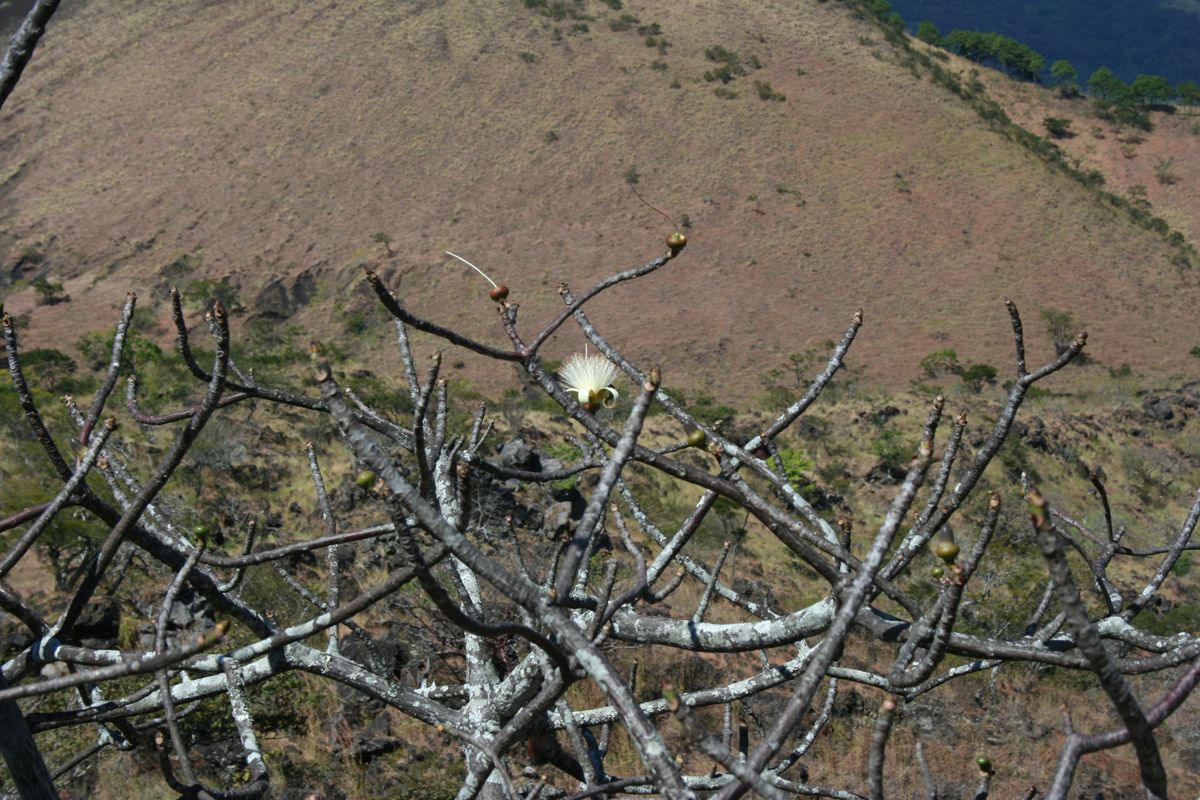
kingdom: Plantae
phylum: Tracheophyta
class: Magnoliopsida
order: Malvales
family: Malvaceae
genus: Pseudobombax
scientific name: Pseudobombax ellipticum
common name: Shaving-brush-tree
